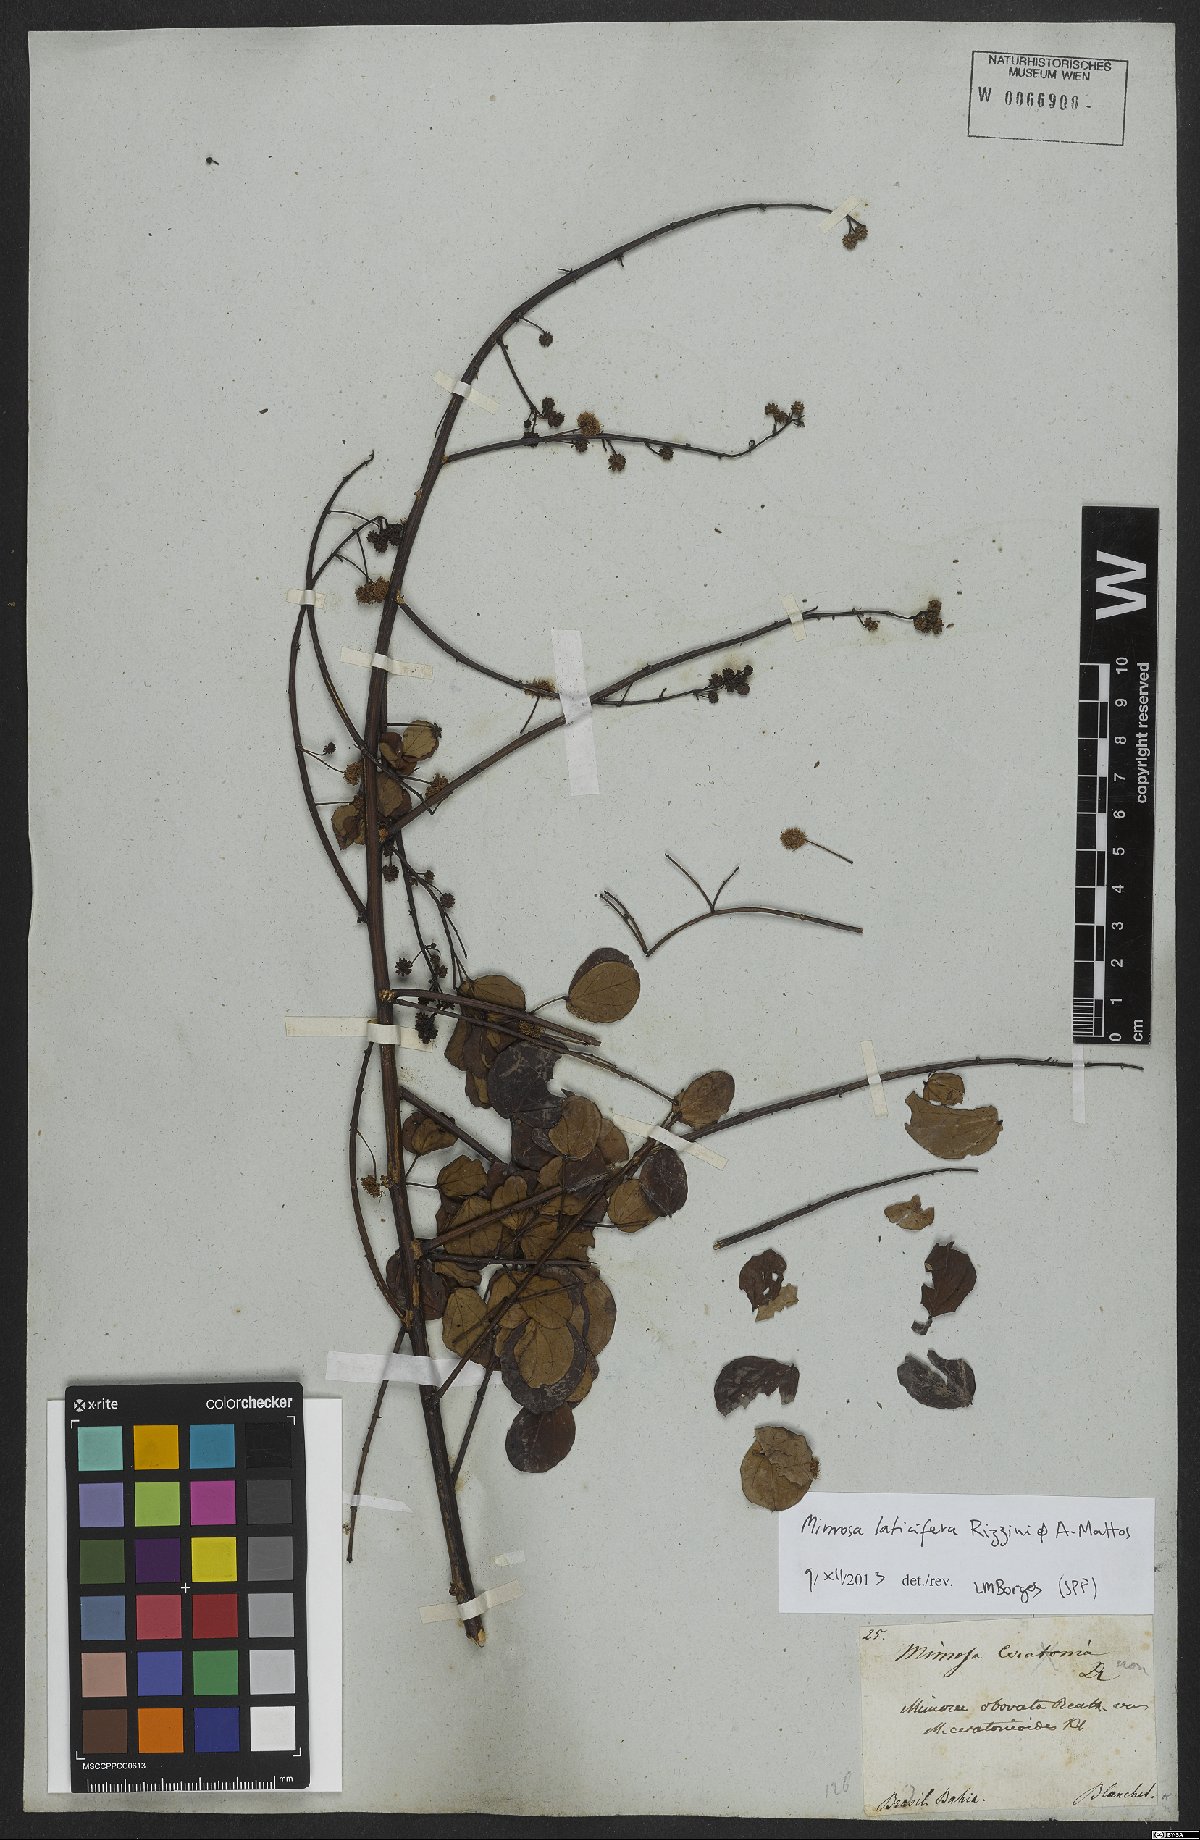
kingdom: Plantae
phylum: Tracheophyta
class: Magnoliopsida
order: Fabales
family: Fabaceae
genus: Mimosa
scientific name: Mimosa laticifera
